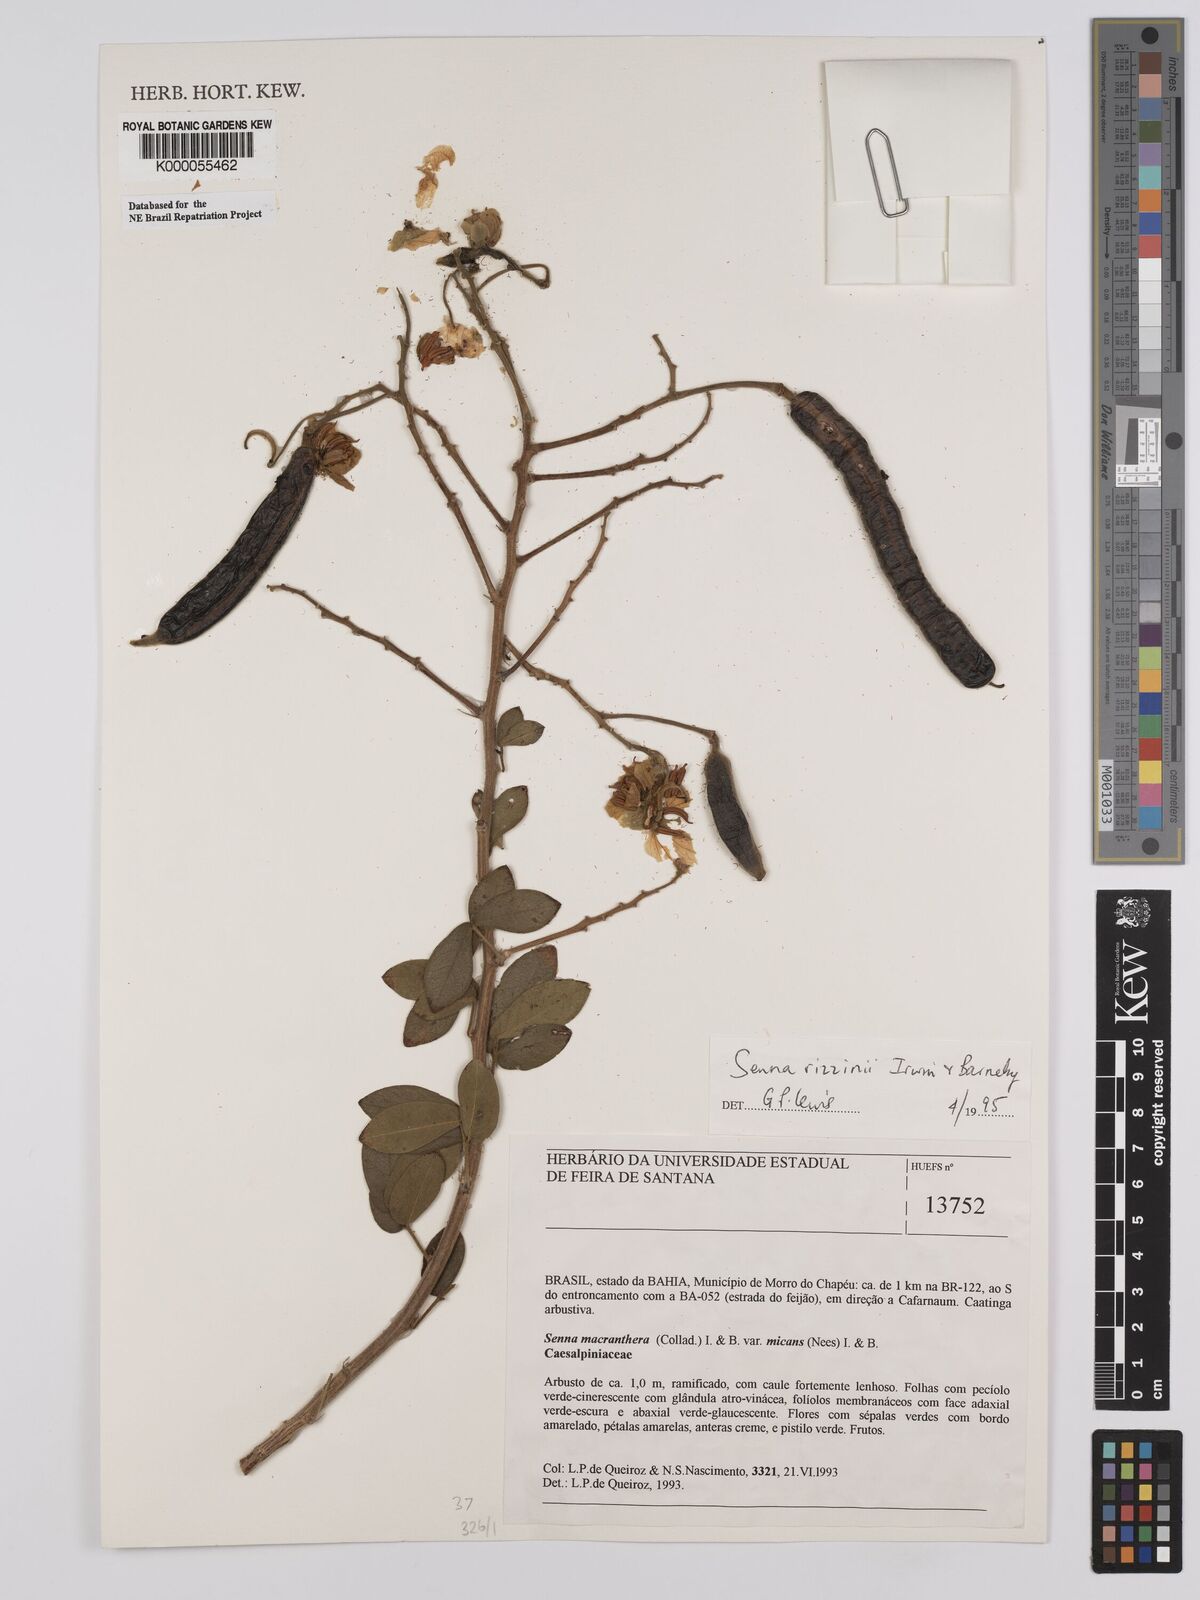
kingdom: Plantae
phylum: Tracheophyta
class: Magnoliopsida
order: Fabales
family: Fabaceae
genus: Senna
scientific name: Senna macranthera
